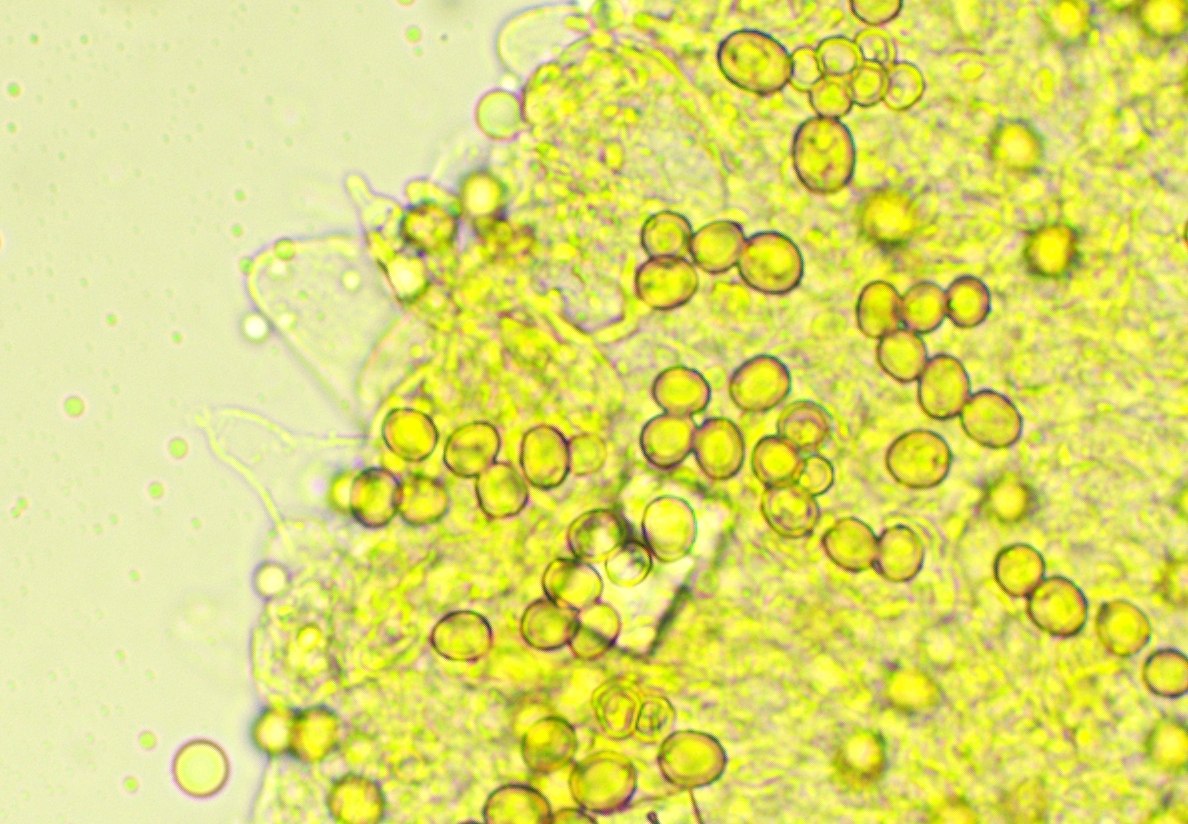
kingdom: Fungi
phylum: Basidiomycota
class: Agaricomycetes
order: Agaricales
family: Pluteaceae
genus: Pluteus
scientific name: Pluteus
